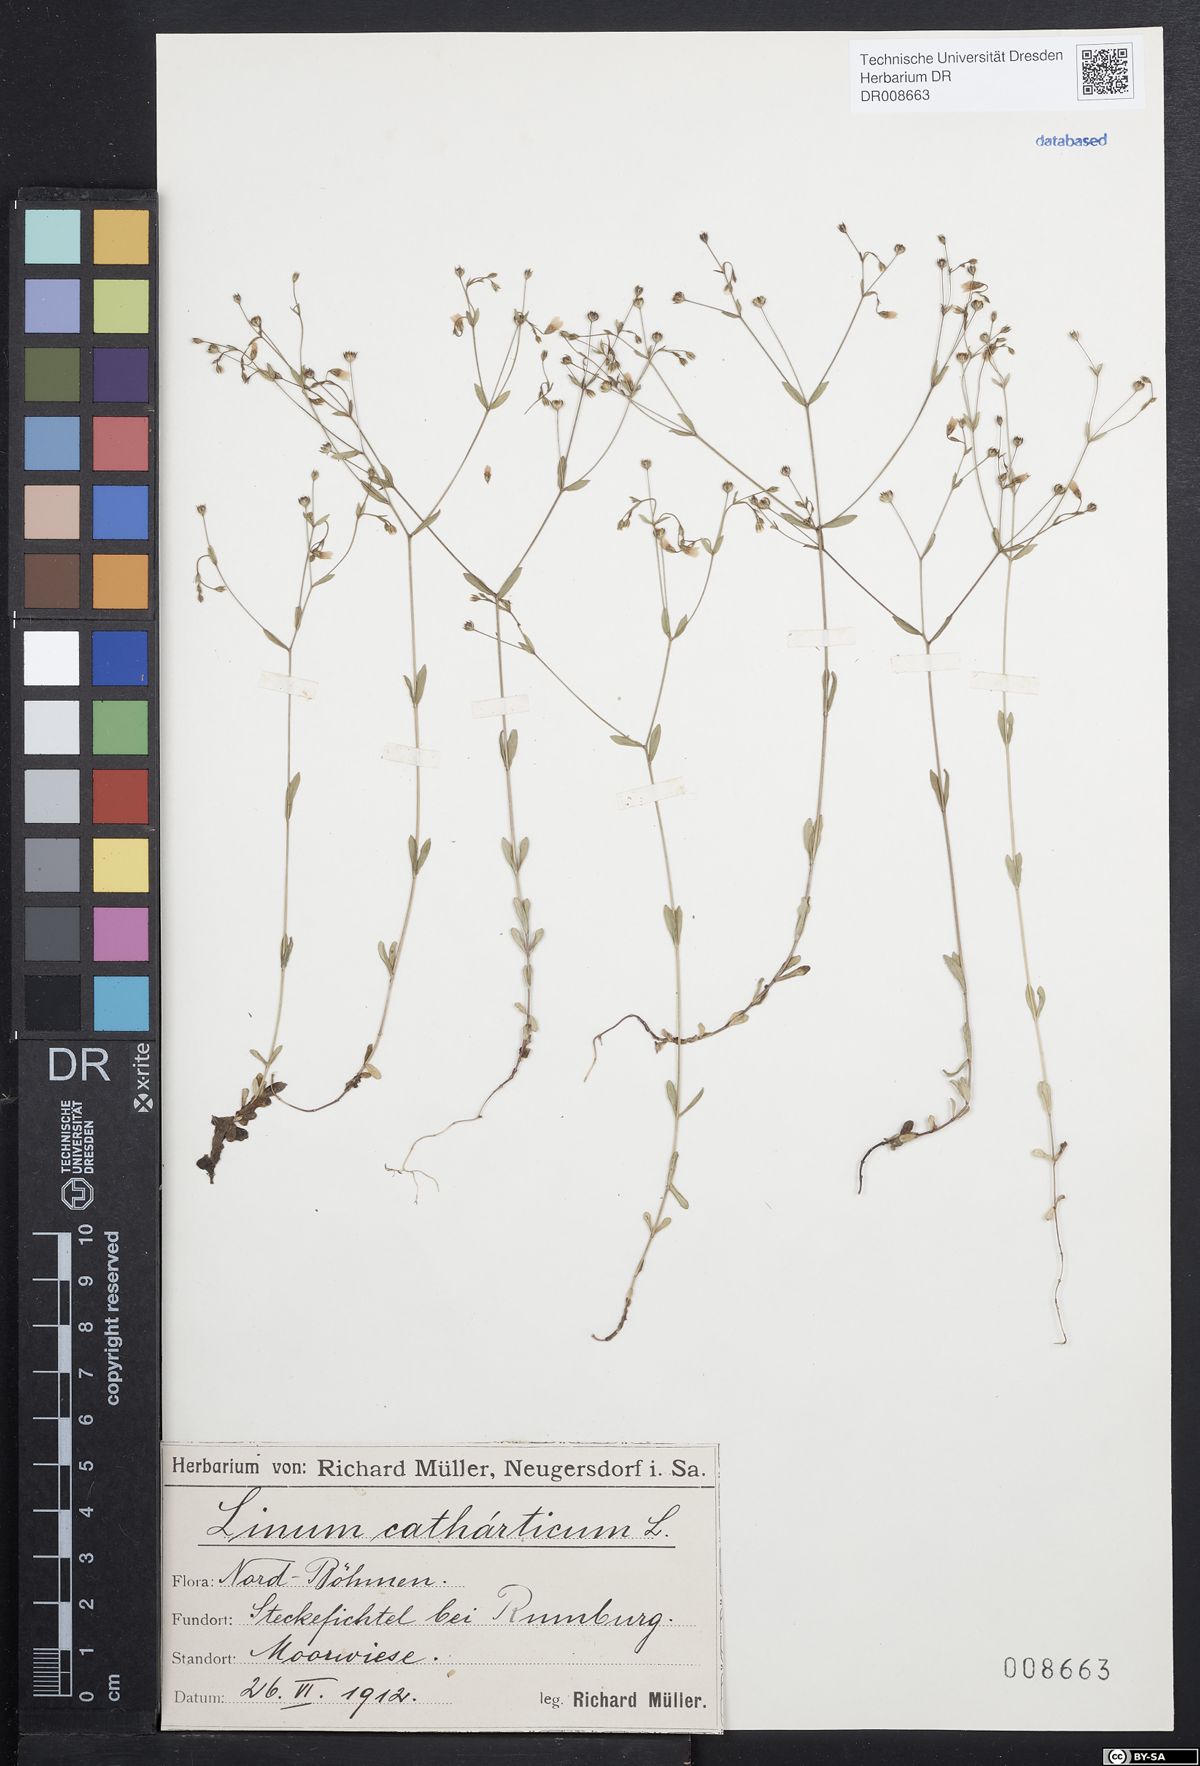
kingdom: Plantae
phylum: Tracheophyta
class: Magnoliopsida
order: Malpighiales
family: Linaceae
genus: Linum
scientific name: Linum catharticum
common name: Fairy flax
